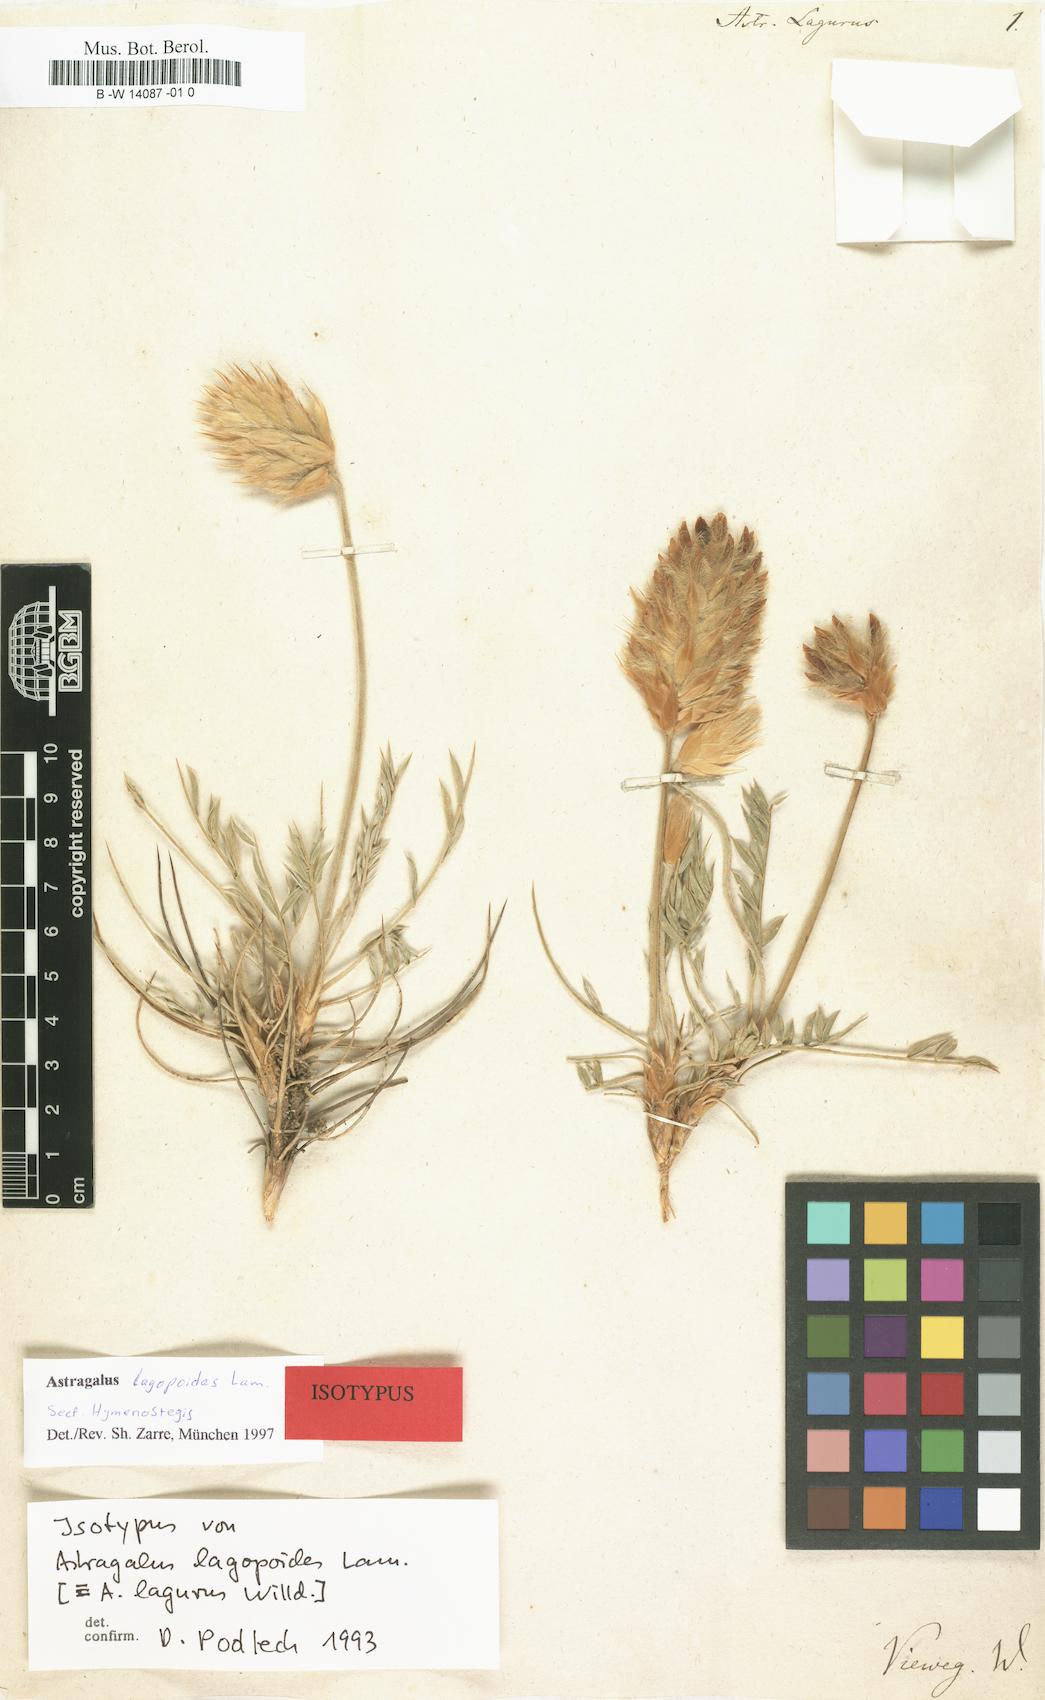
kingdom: Plantae
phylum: Tracheophyta
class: Magnoliopsida
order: Fabales
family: Fabaceae
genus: Astragalus
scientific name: Astragalus lagopoides
